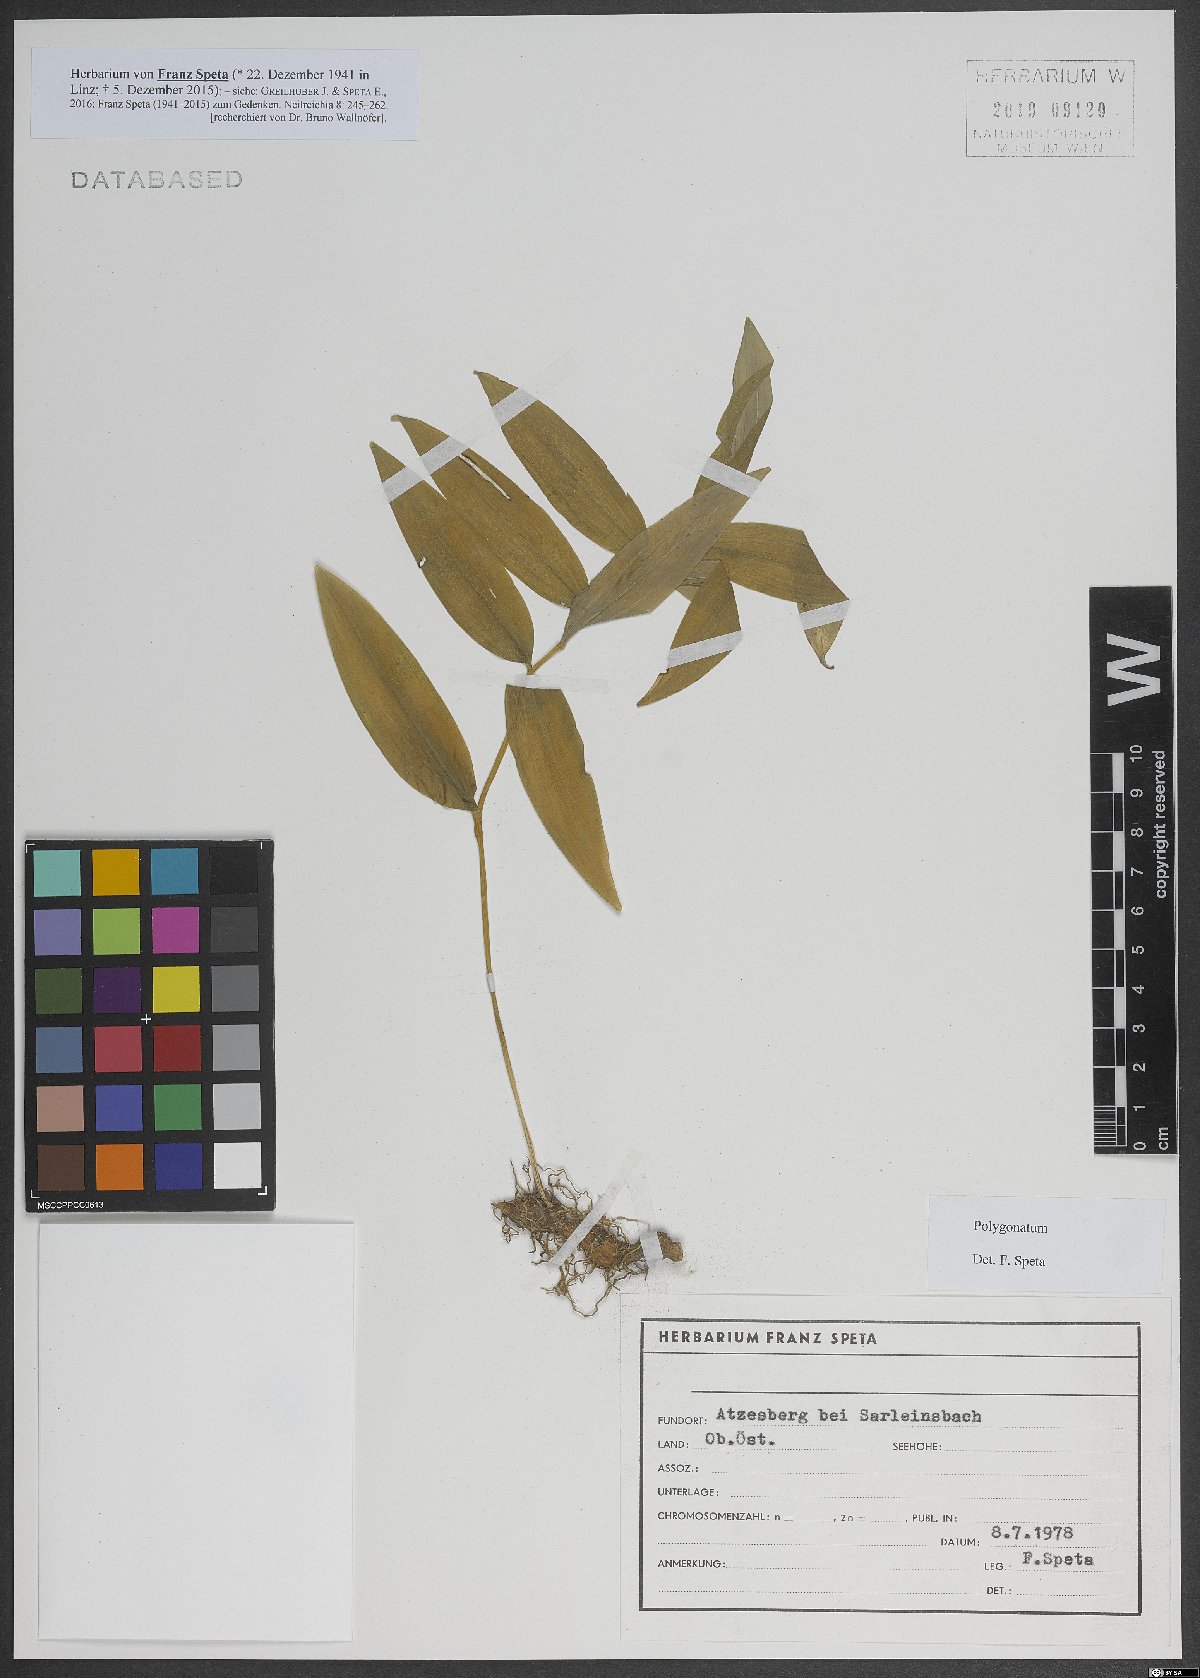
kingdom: Plantae
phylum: Tracheophyta
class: Liliopsida
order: Asparagales
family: Asparagaceae
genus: Polygonatum
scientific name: Polygonatum
